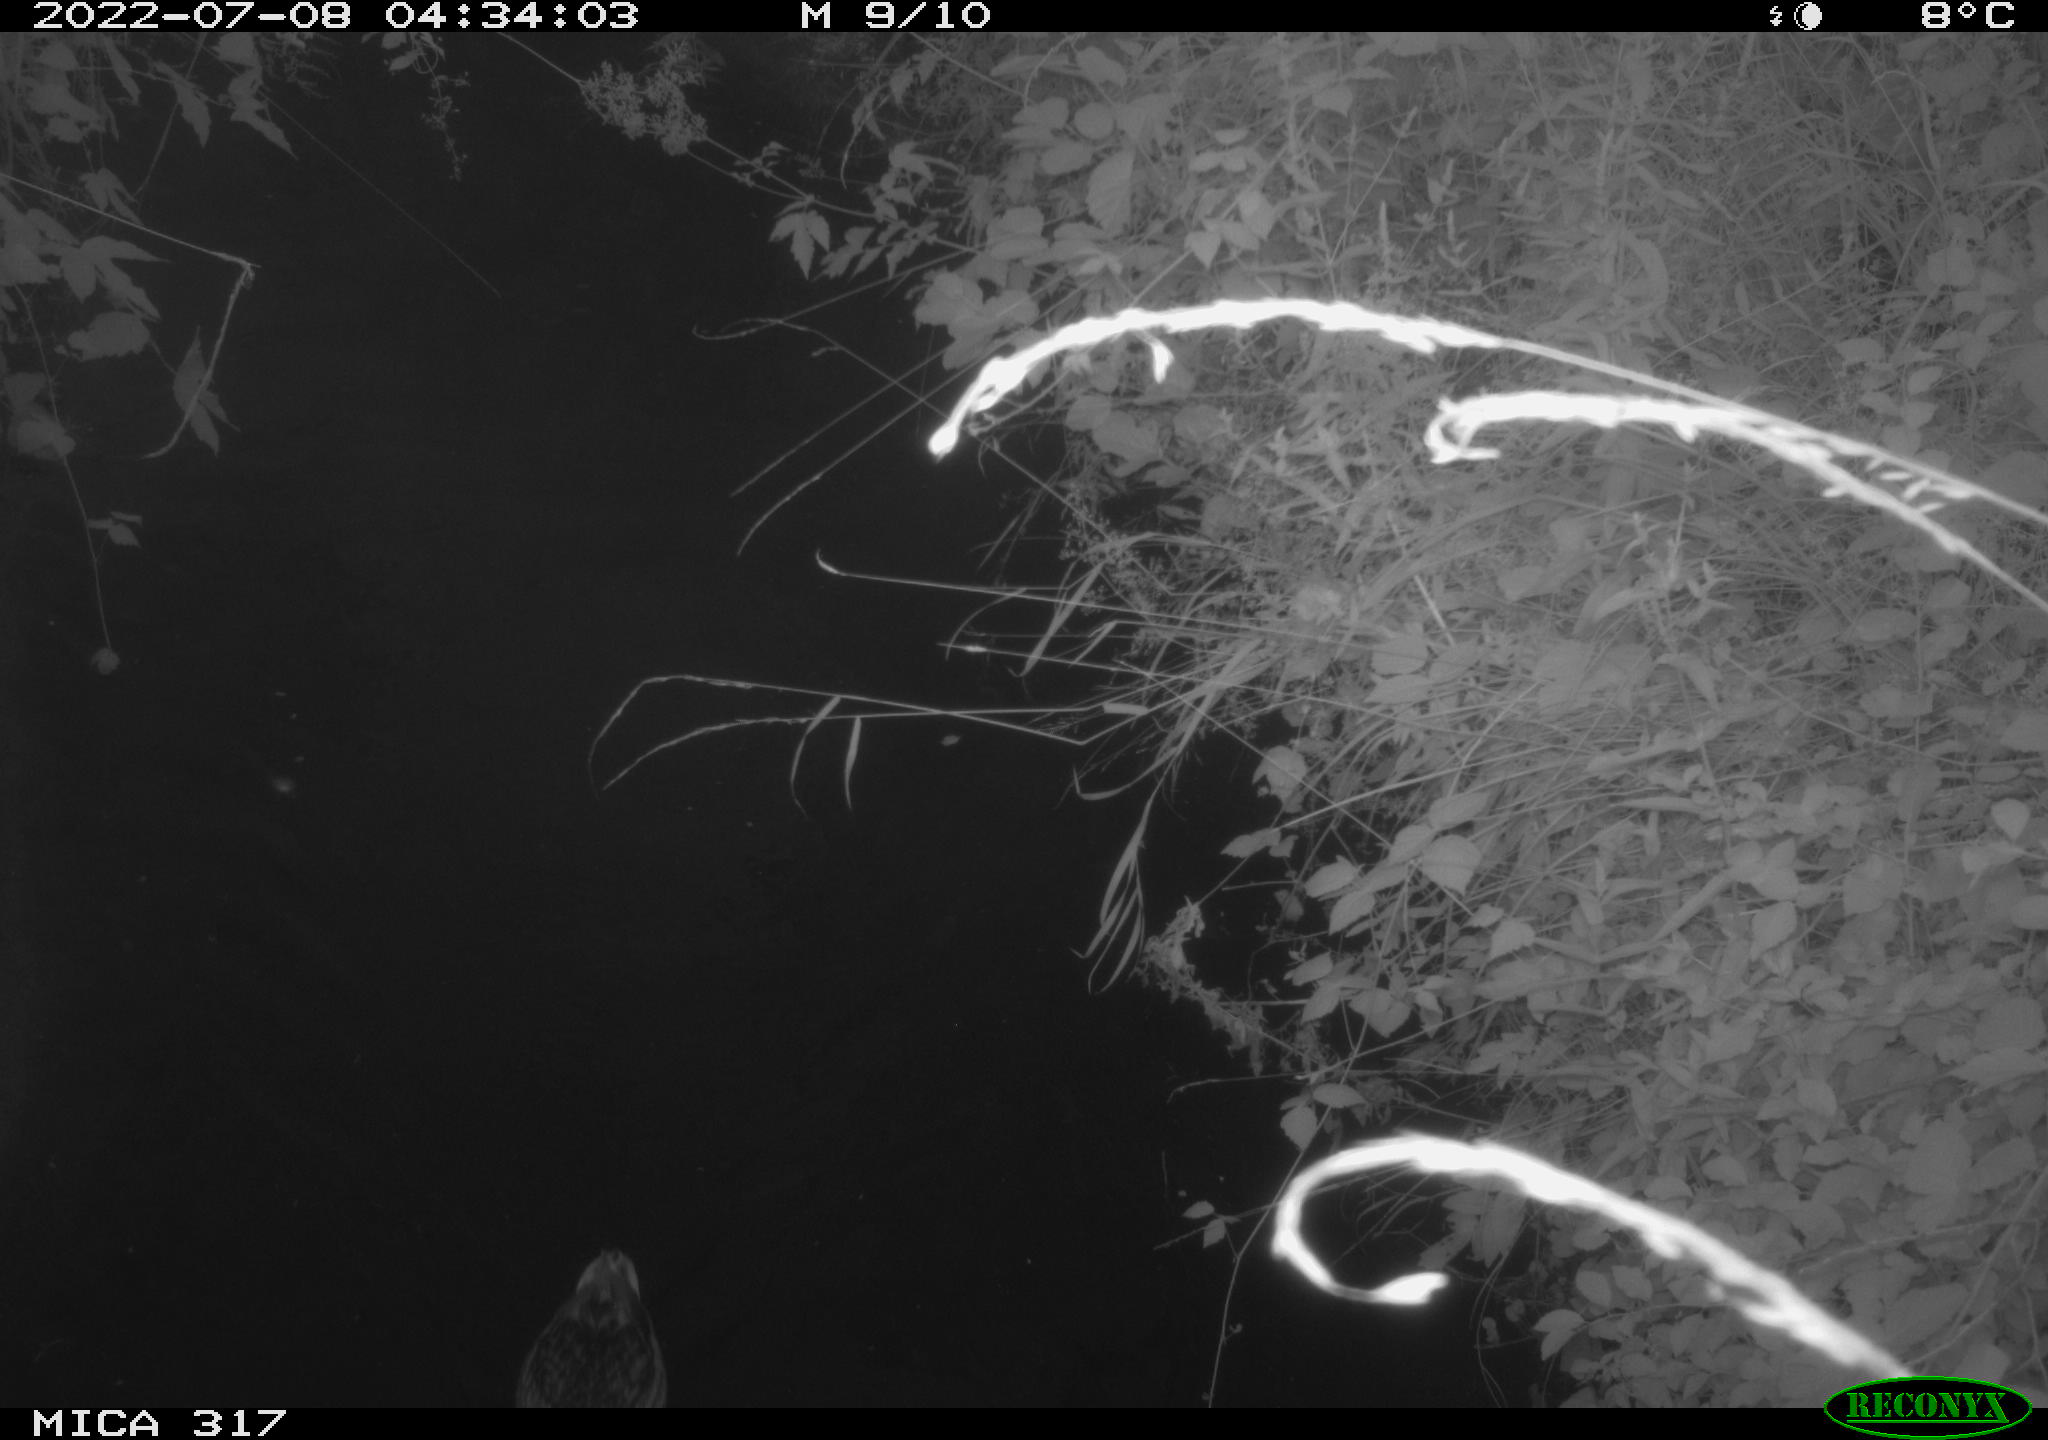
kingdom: Animalia
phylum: Chordata
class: Aves
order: Anseriformes
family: Anatidae
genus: Anas
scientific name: Anas platyrhynchos
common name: Mallard
